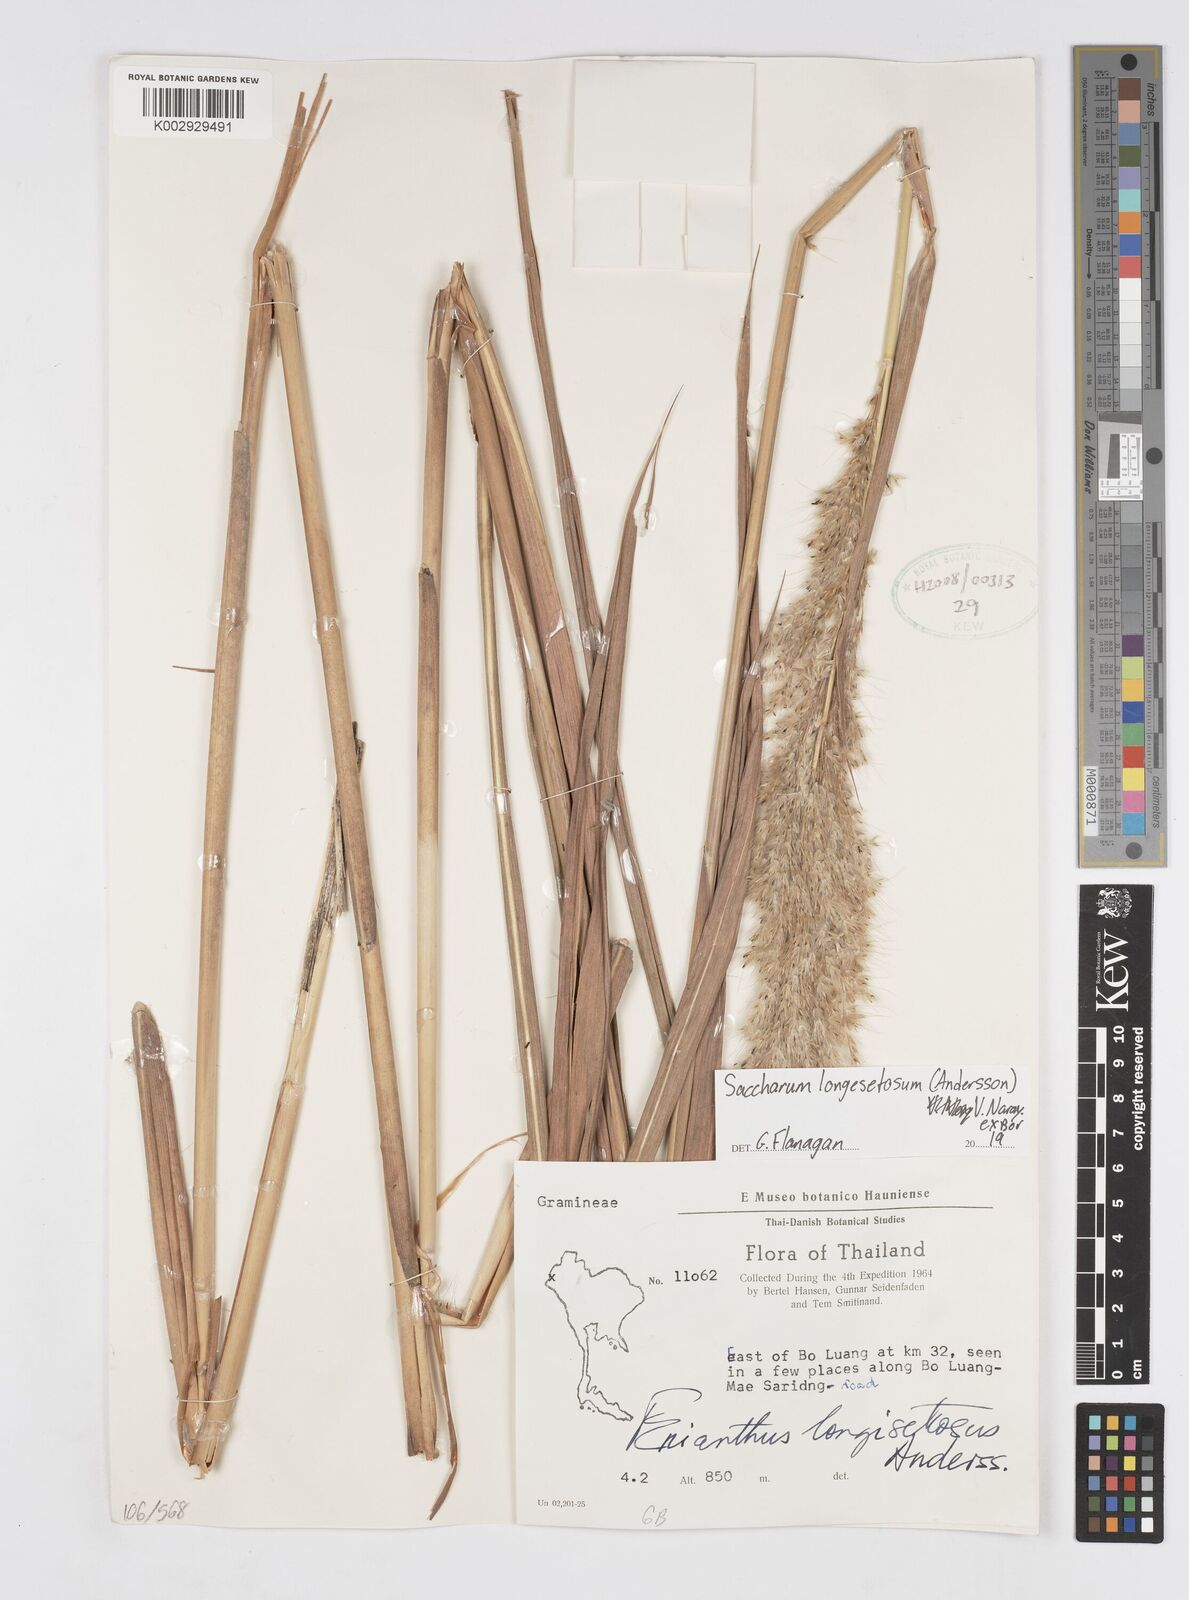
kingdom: Plantae
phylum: Tracheophyta
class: Liliopsida
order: Poales
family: Poaceae
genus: Saccharum
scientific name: Saccharum longesetosum
